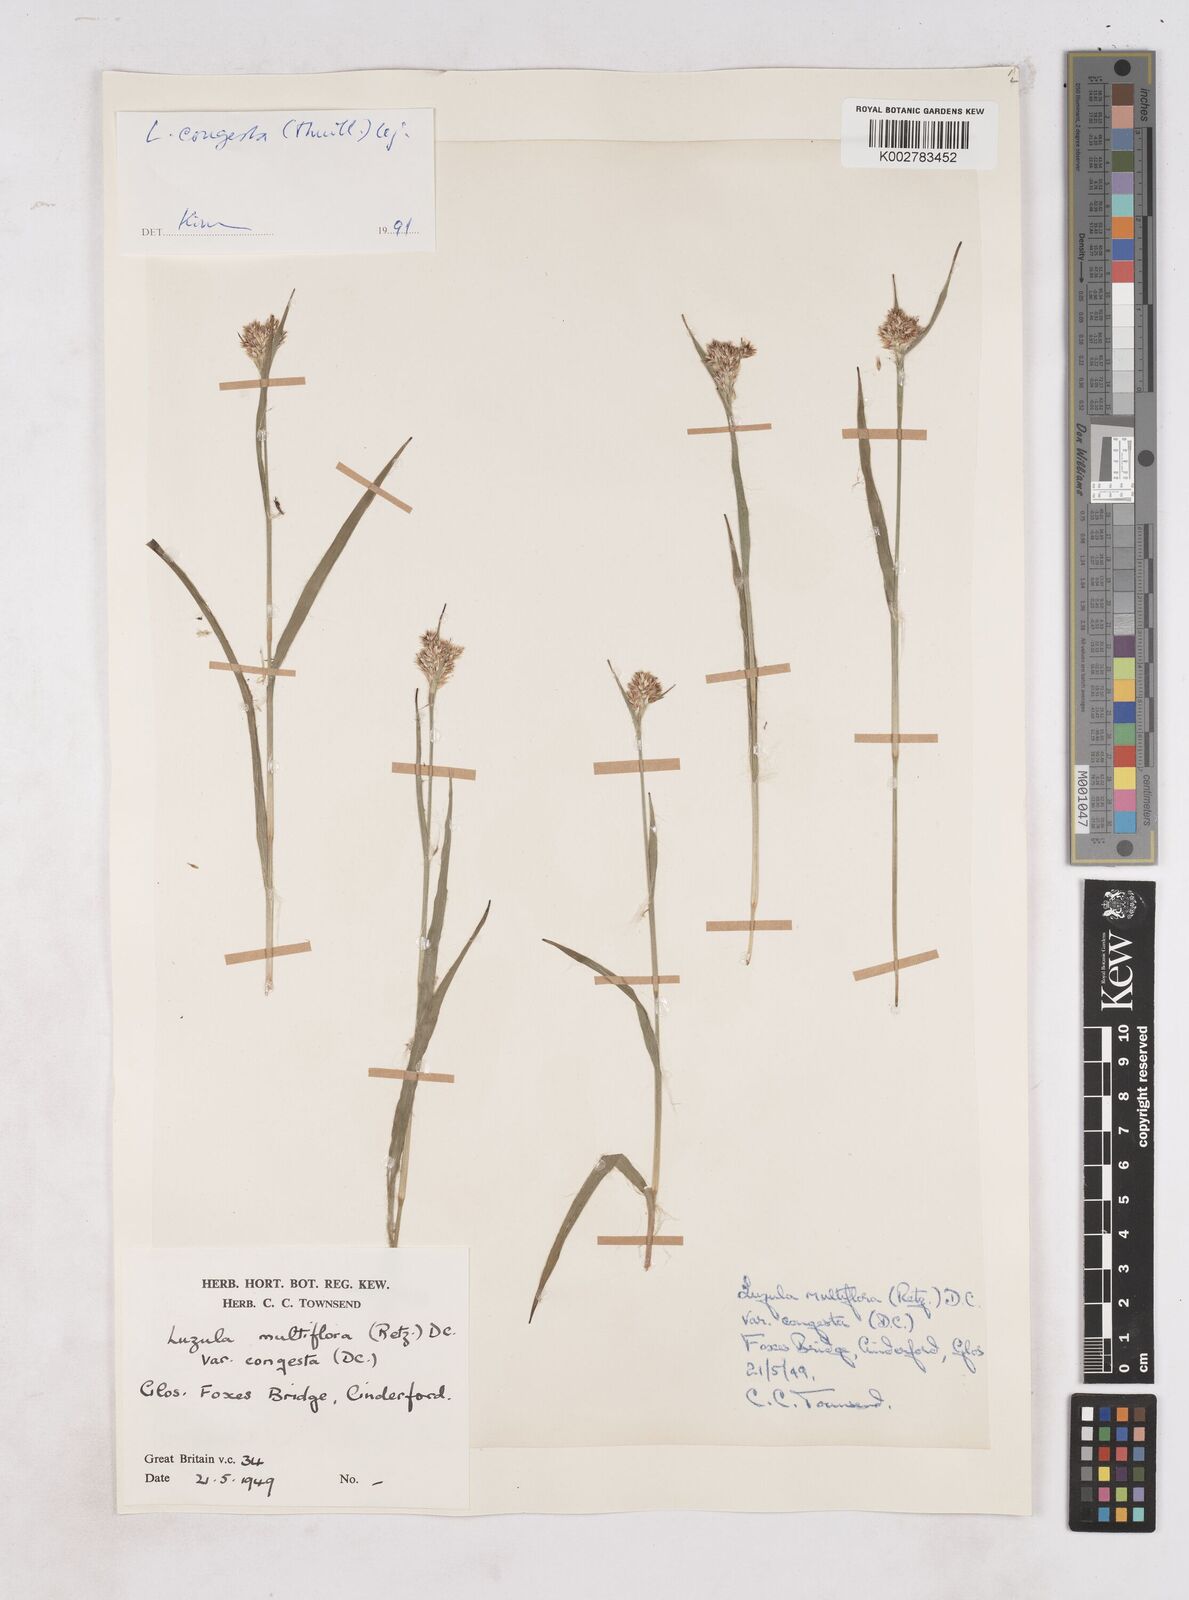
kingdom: Plantae
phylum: Tracheophyta
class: Liliopsida
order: Poales
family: Juncaceae
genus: Luzula
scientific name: Luzula campestris
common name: Field wood-rush
